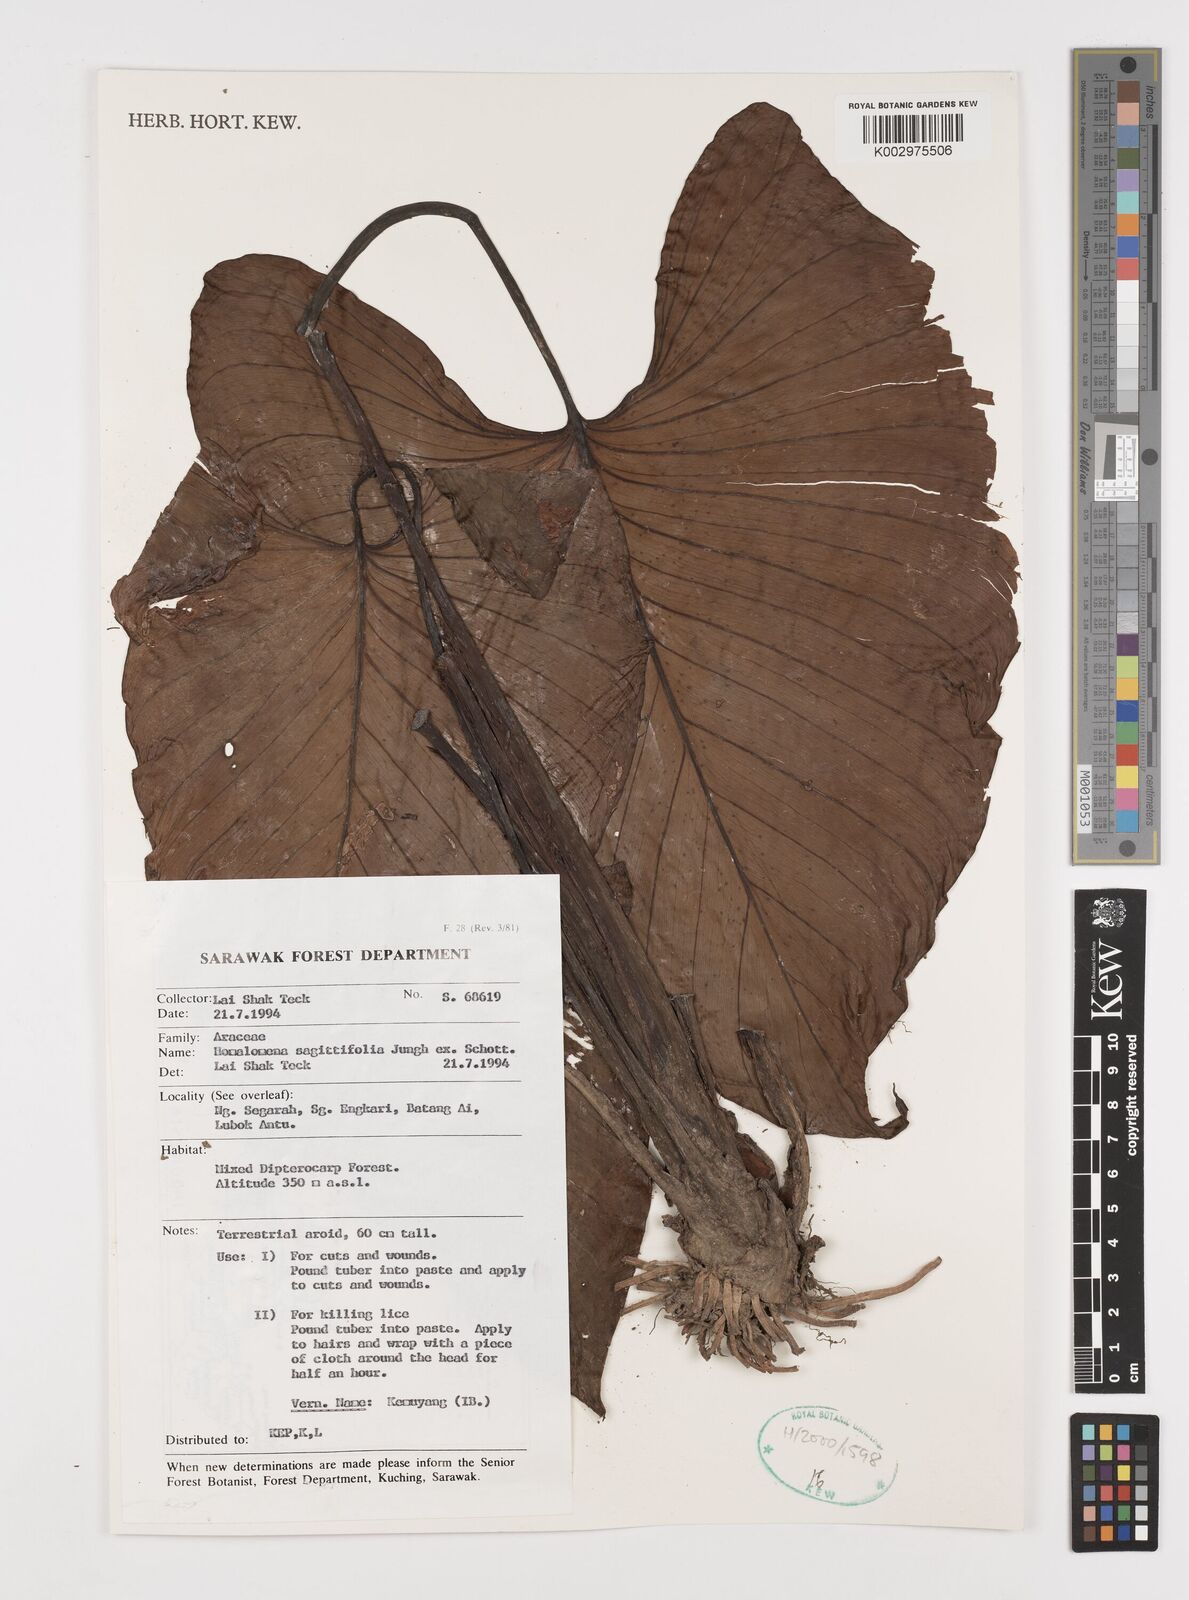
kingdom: Plantae
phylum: Tracheophyta
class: Liliopsida
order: Alismatales
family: Araceae
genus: Homalomena
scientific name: Homalomena rostrata
